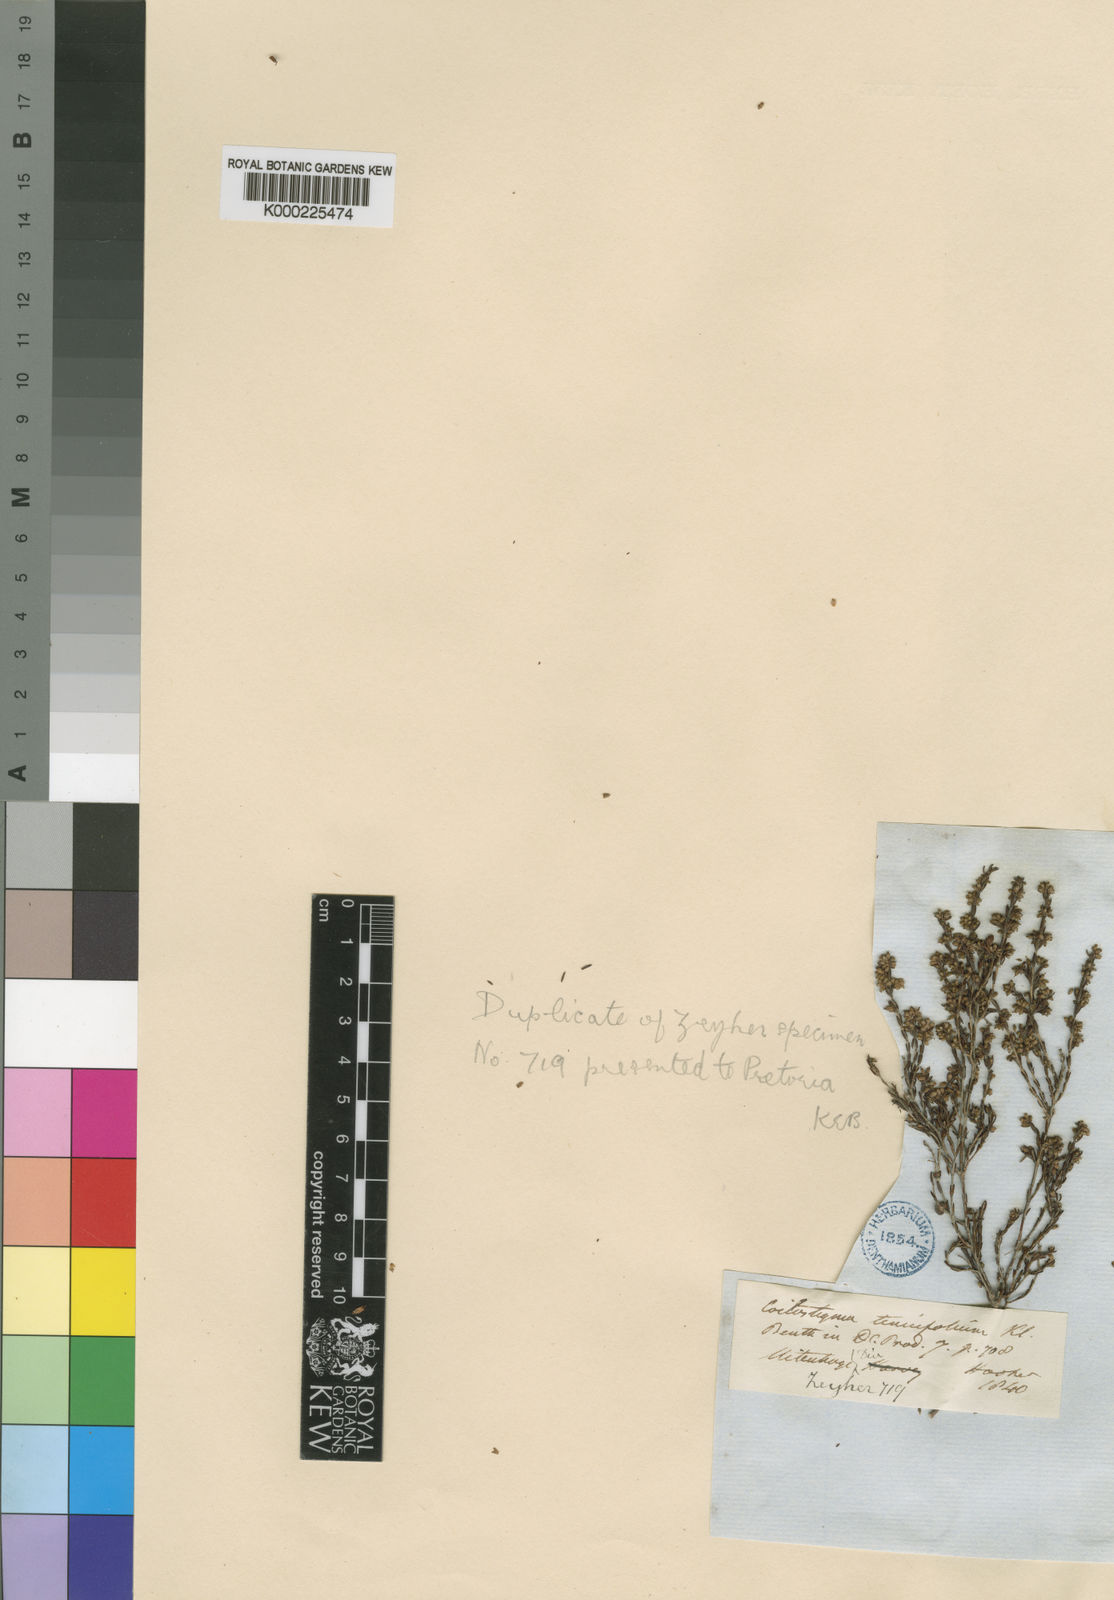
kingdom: Plantae
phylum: Tracheophyta
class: Magnoliopsida
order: Ericales
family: Ericaceae
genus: Erica
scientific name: Erica zeyheriana
